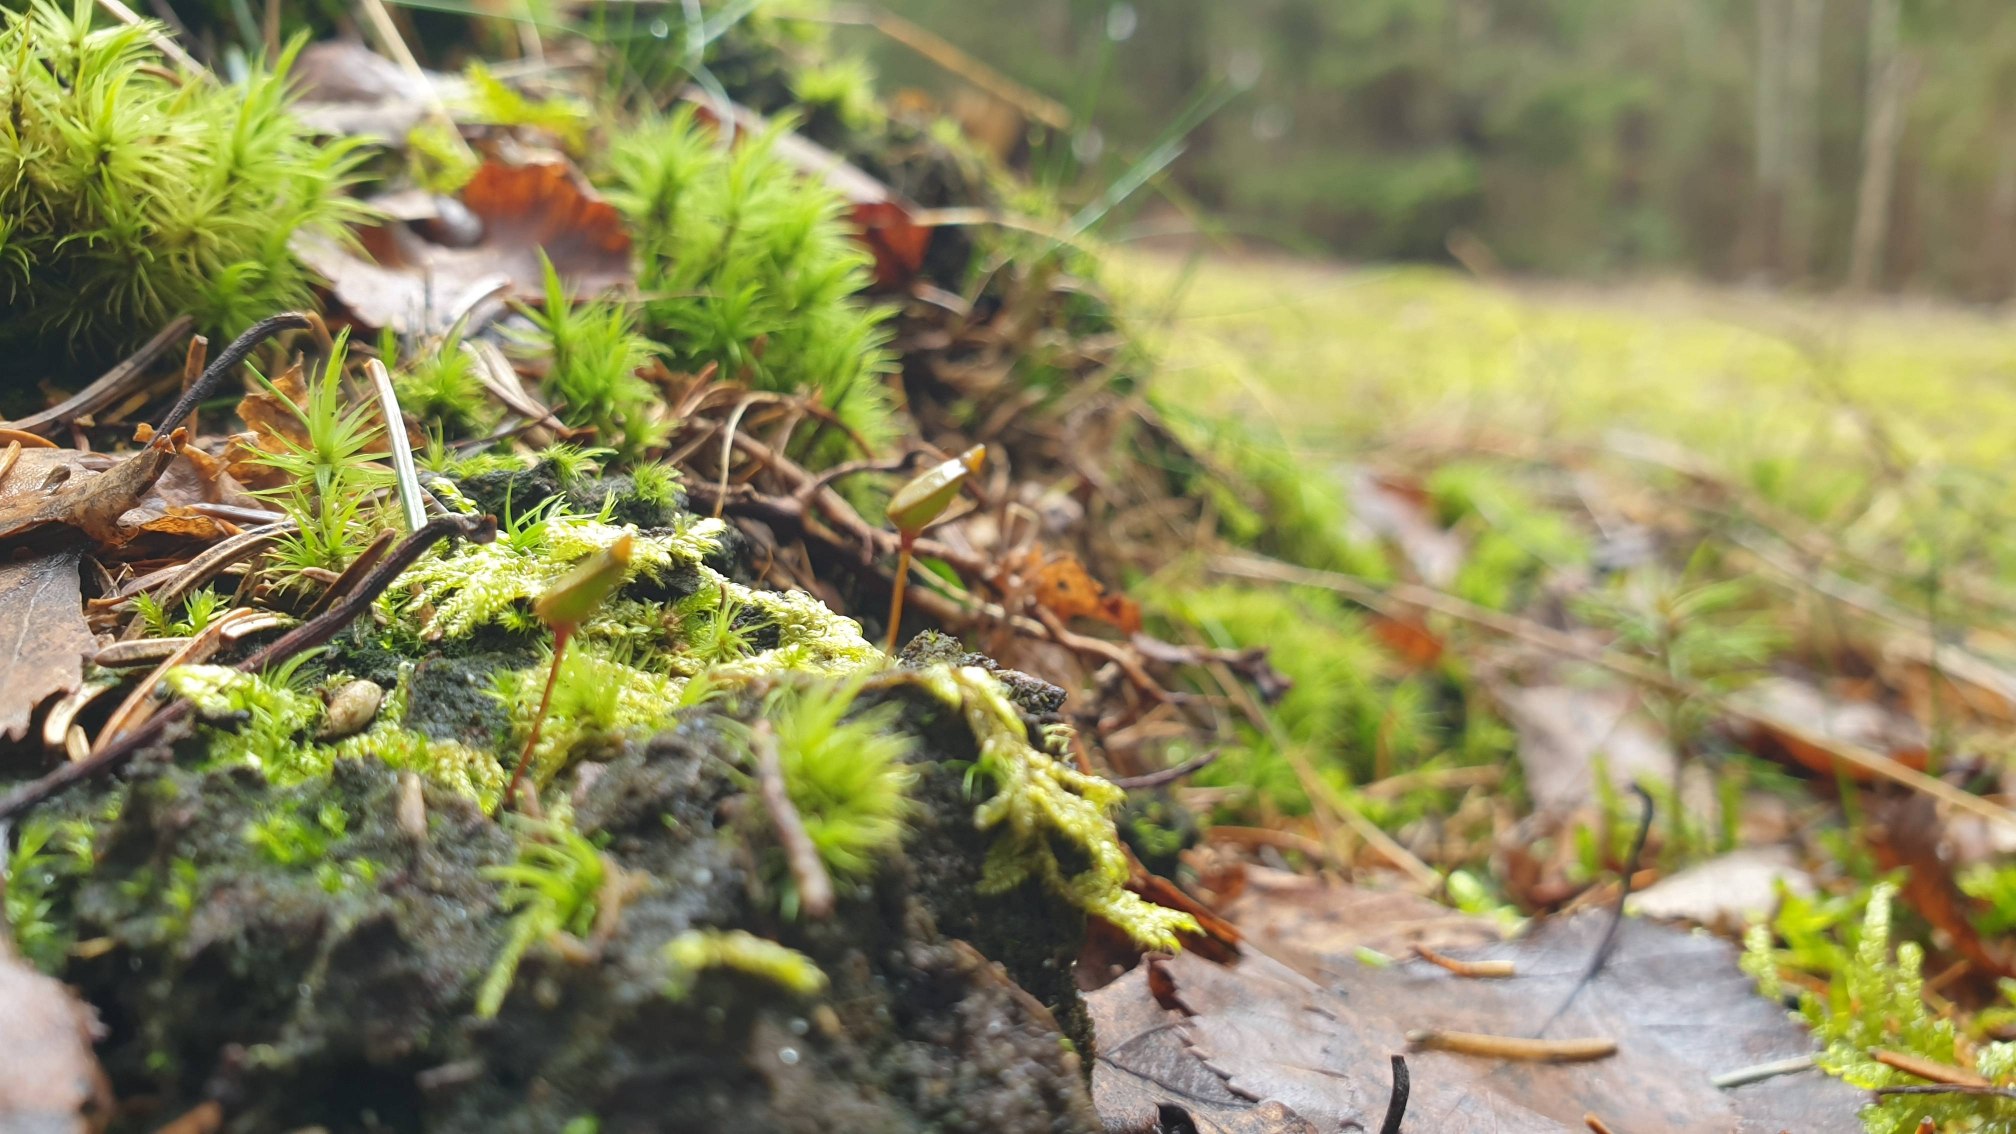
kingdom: Plantae
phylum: Bryophyta
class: Bryopsida
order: Buxbaumiales
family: Buxbaumiaceae
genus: Buxbaumia
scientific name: Buxbaumia aphylla
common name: Rundkapslet buxbaumia
